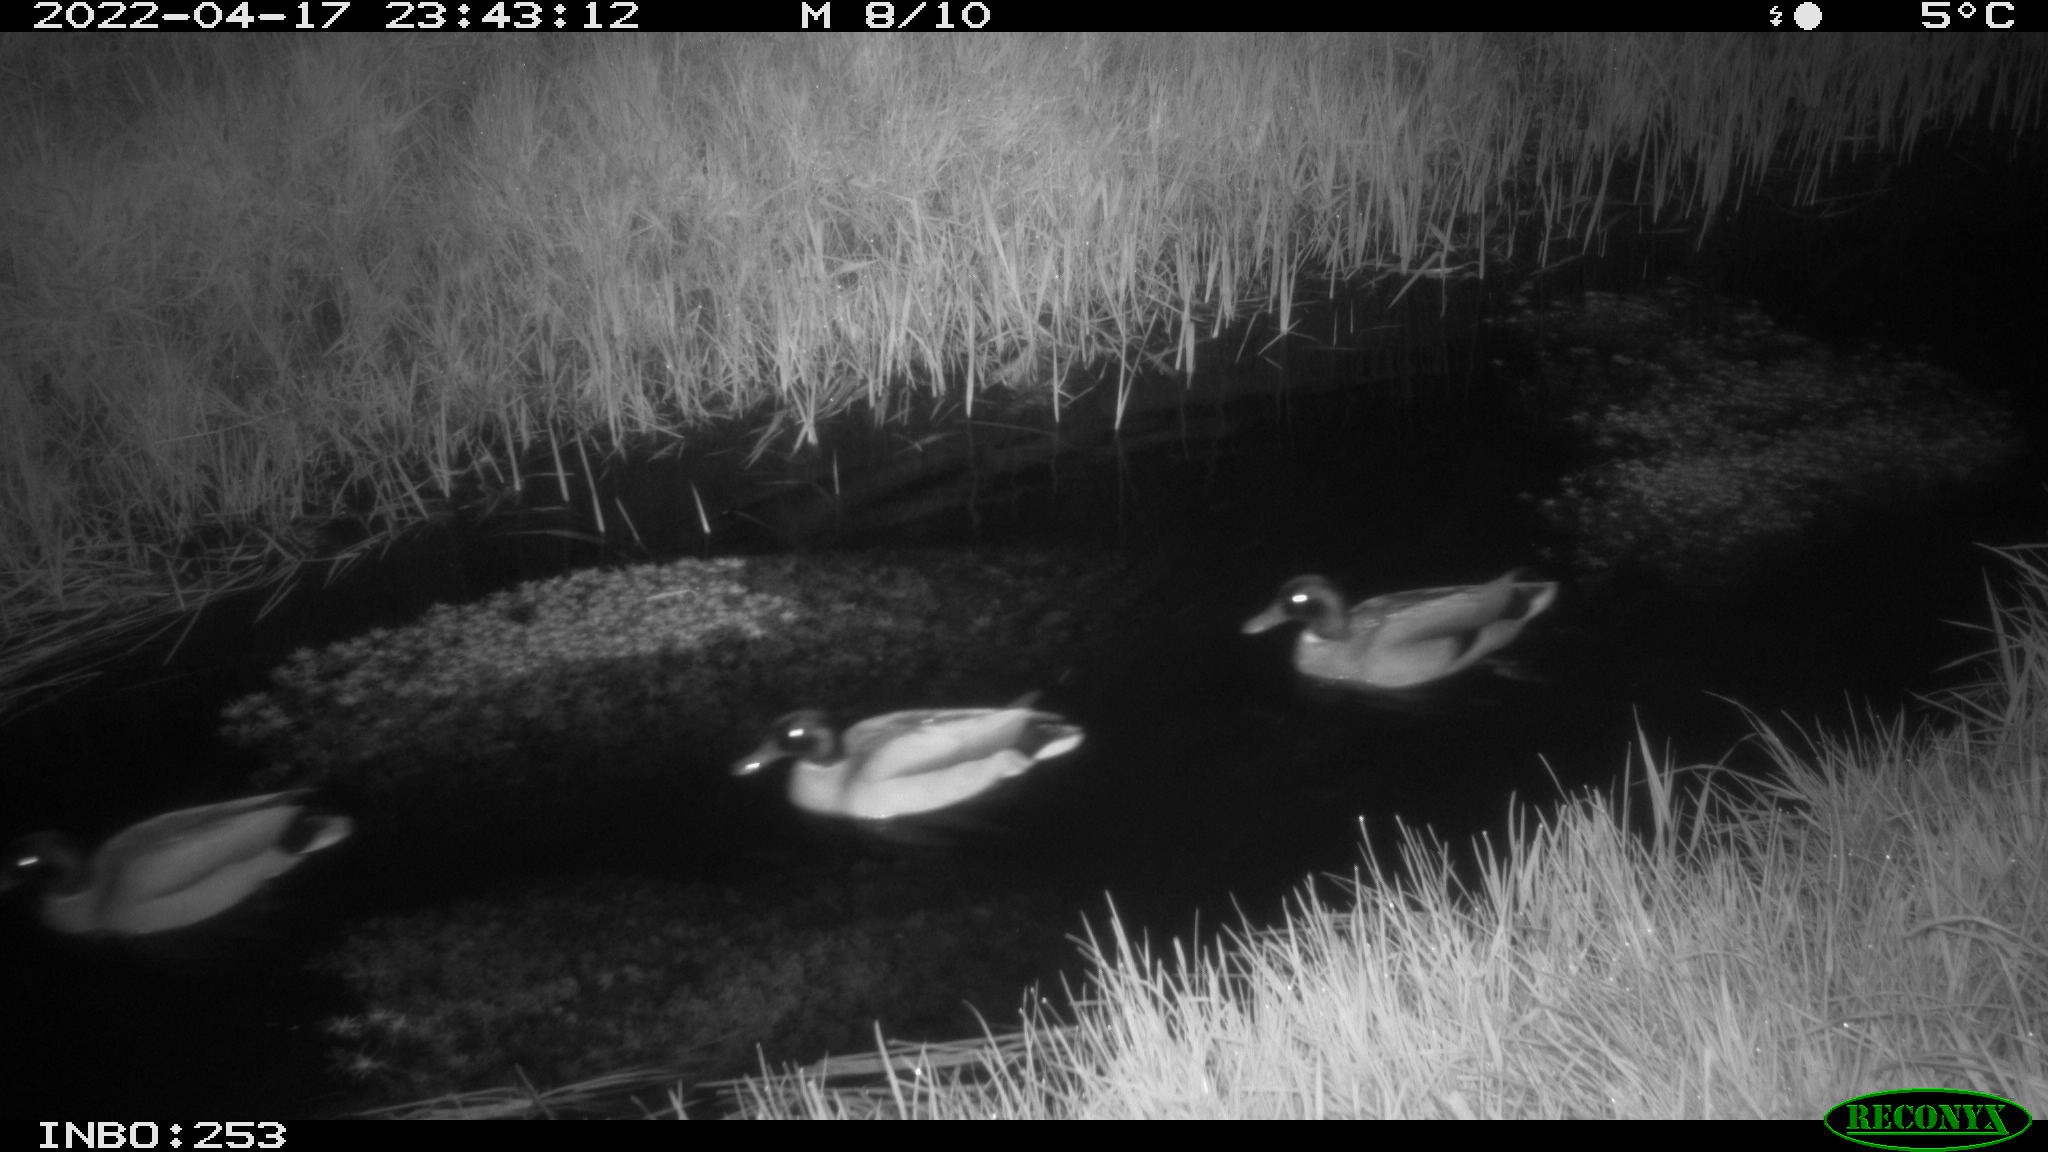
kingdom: Animalia
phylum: Chordata
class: Aves
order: Anseriformes
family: Anatidae
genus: Anas
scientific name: Anas platyrhynchos
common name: Mallard
